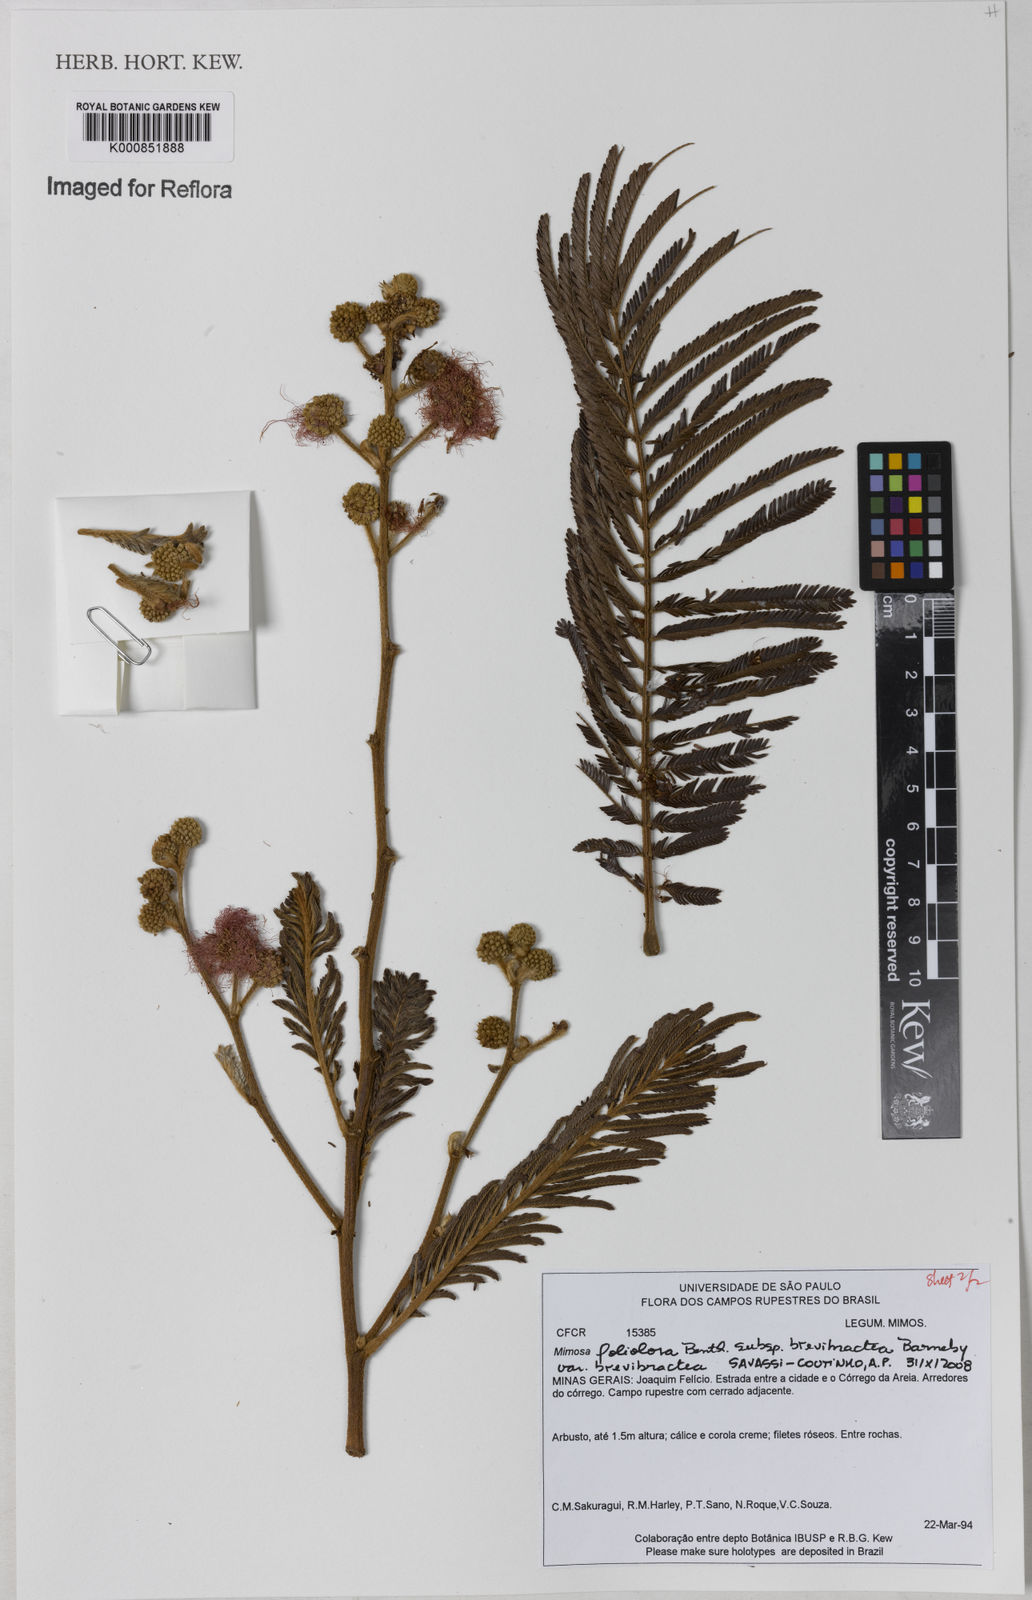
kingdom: Plantae
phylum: Tracheophyta
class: Magnoliopsida
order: Fabales
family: Fabaceae
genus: Mimosa
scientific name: Mimosa foliolosa
